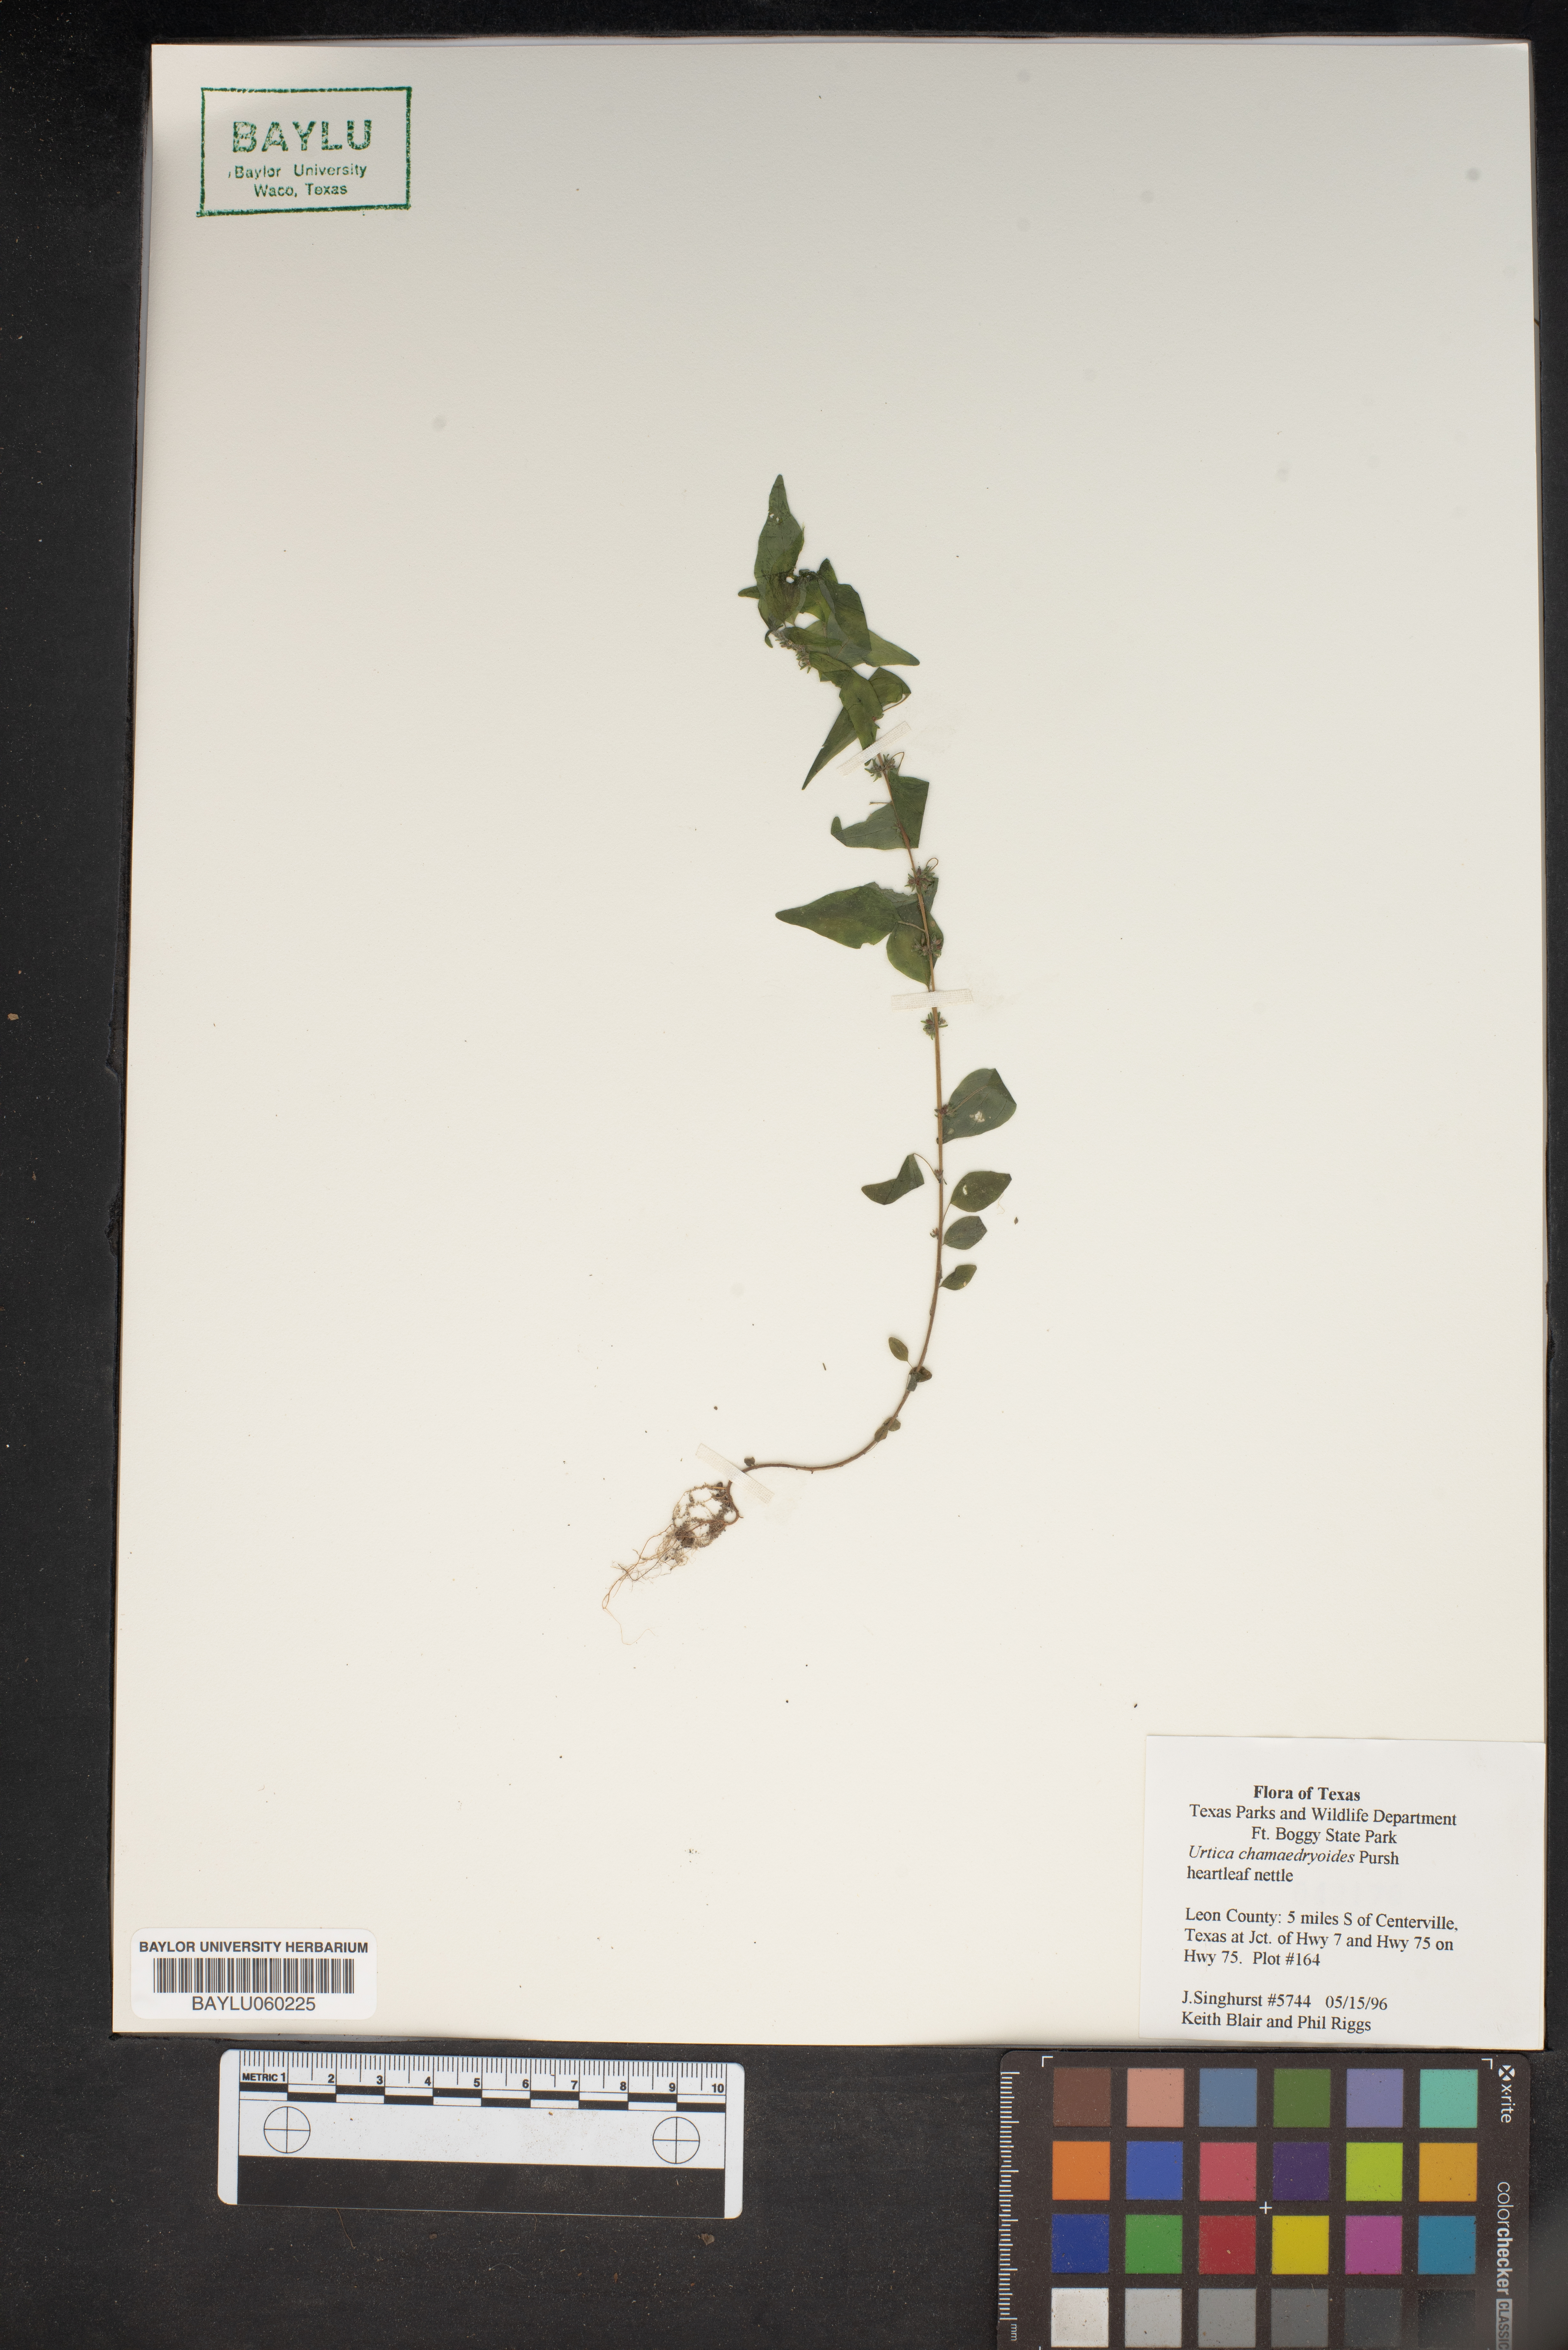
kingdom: Plantae
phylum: Tracheophyta
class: Magnoliopsida
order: Rosales
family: Urticaceae
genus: Urtica
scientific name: Urtica chamaedryoides
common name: Heart-leaf nettle
